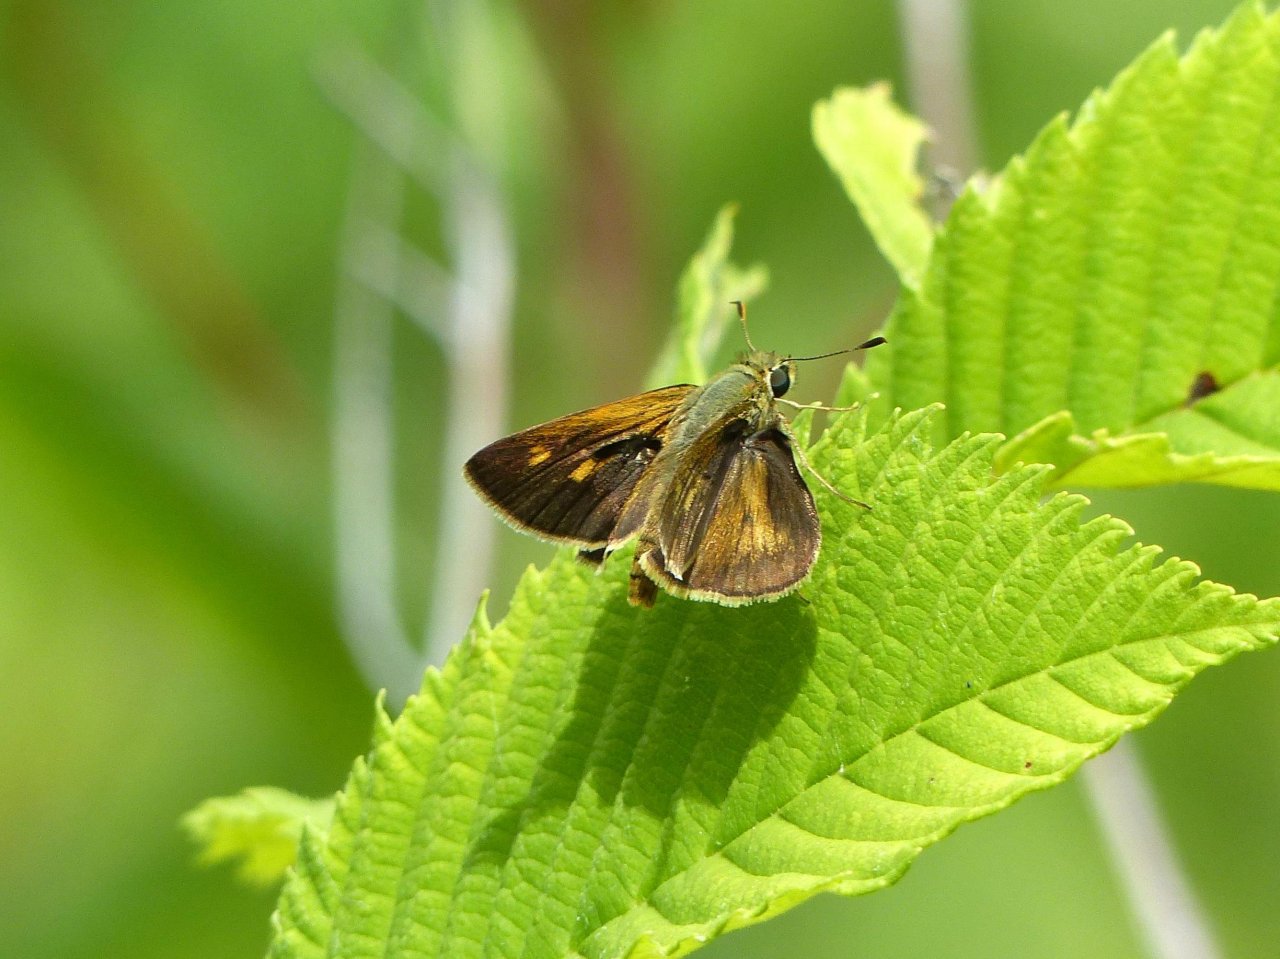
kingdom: Animalia
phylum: Arthropoda
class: Insecta
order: Lepidoptera
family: Hesperiidae
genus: Polites
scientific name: Polites egeremet
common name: Northern Broken-Dash
